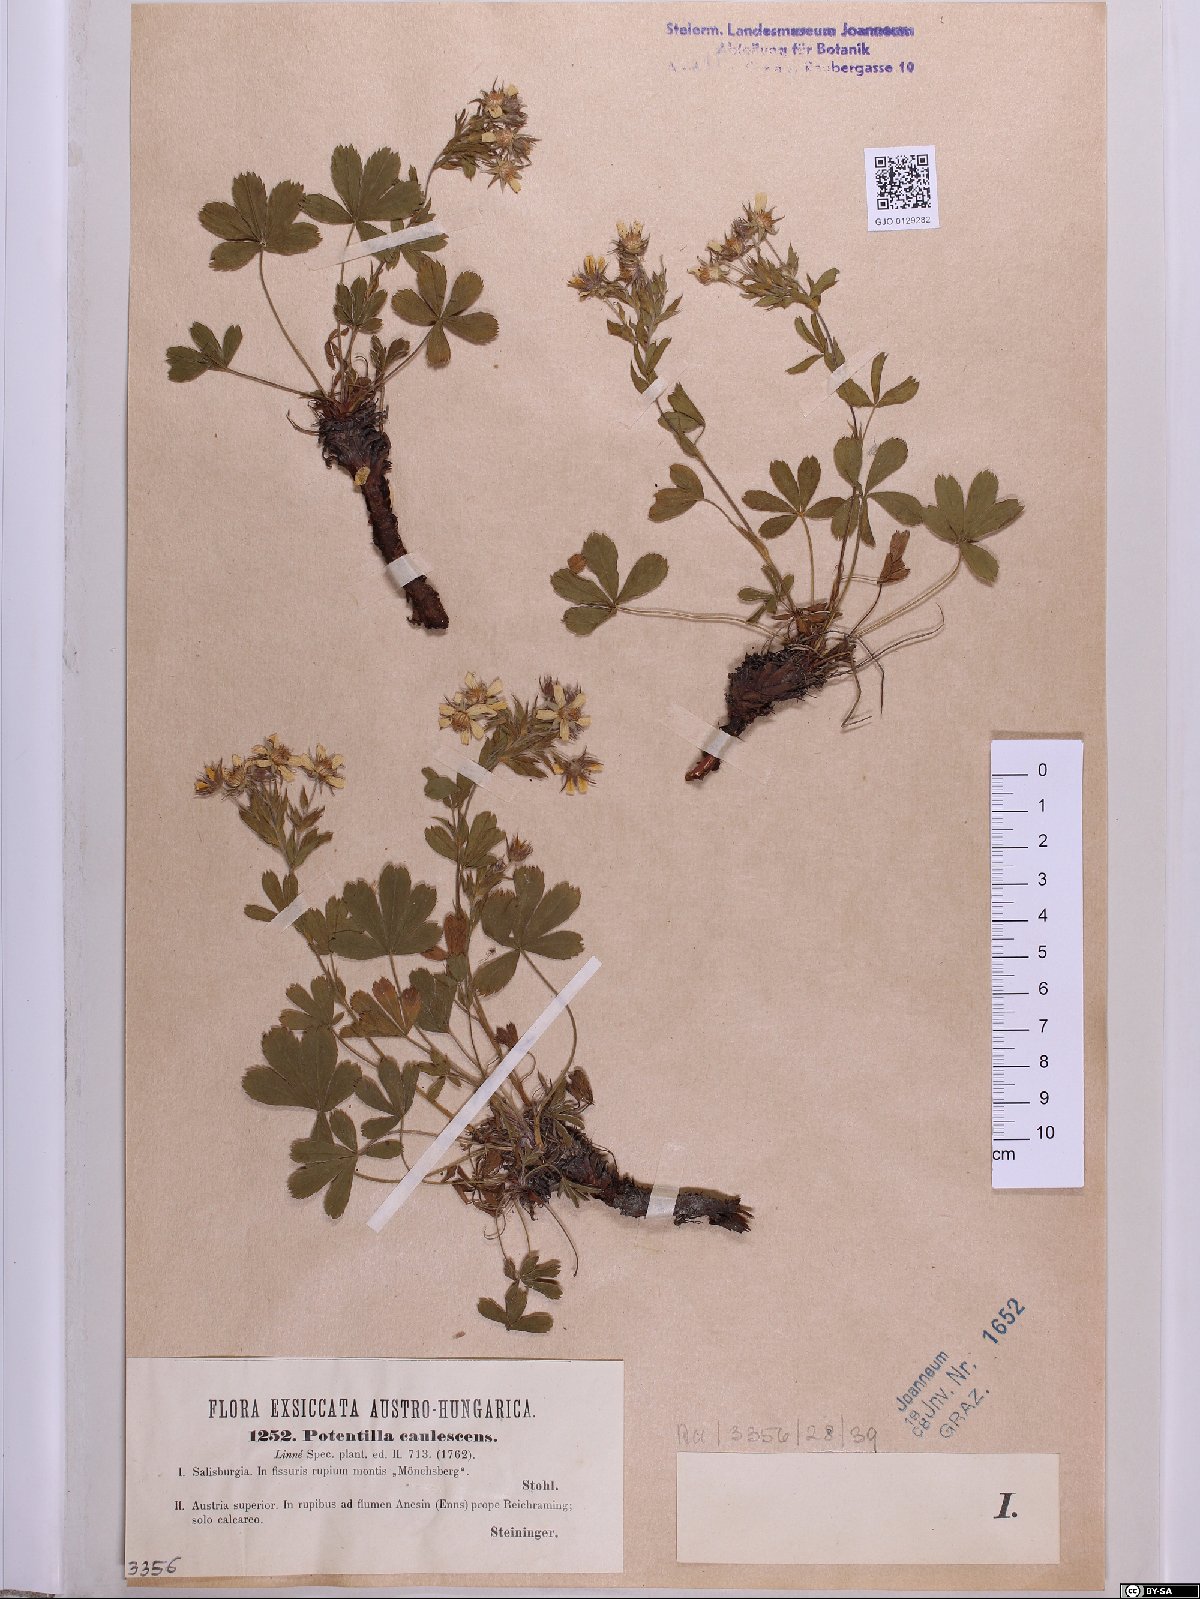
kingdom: Plantae
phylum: Tracheophyta
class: Magnoliopsida
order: Rosales
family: Rosaceae
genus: Potentilla
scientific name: Potentilla caulescens
